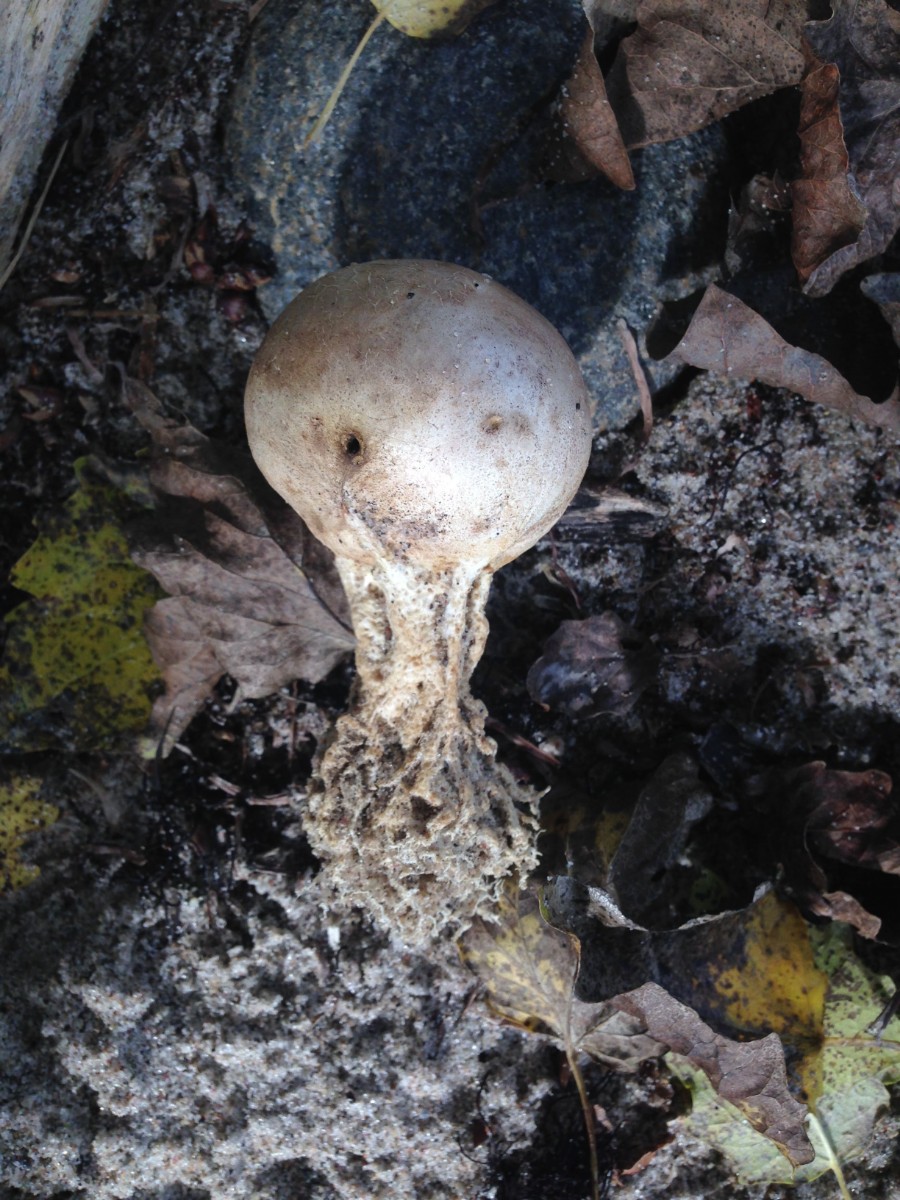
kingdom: Fungi
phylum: Basidiomycota
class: Agaricomycetes
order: Boletales
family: Sclerodermataceae
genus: Scleroderma
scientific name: Scleroderma septentrionale
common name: sand-bruskbold
